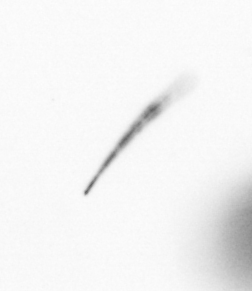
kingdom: Chromista
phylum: Ochrophyta
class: Bacillariophyceae
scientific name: Bacillariophyceae
